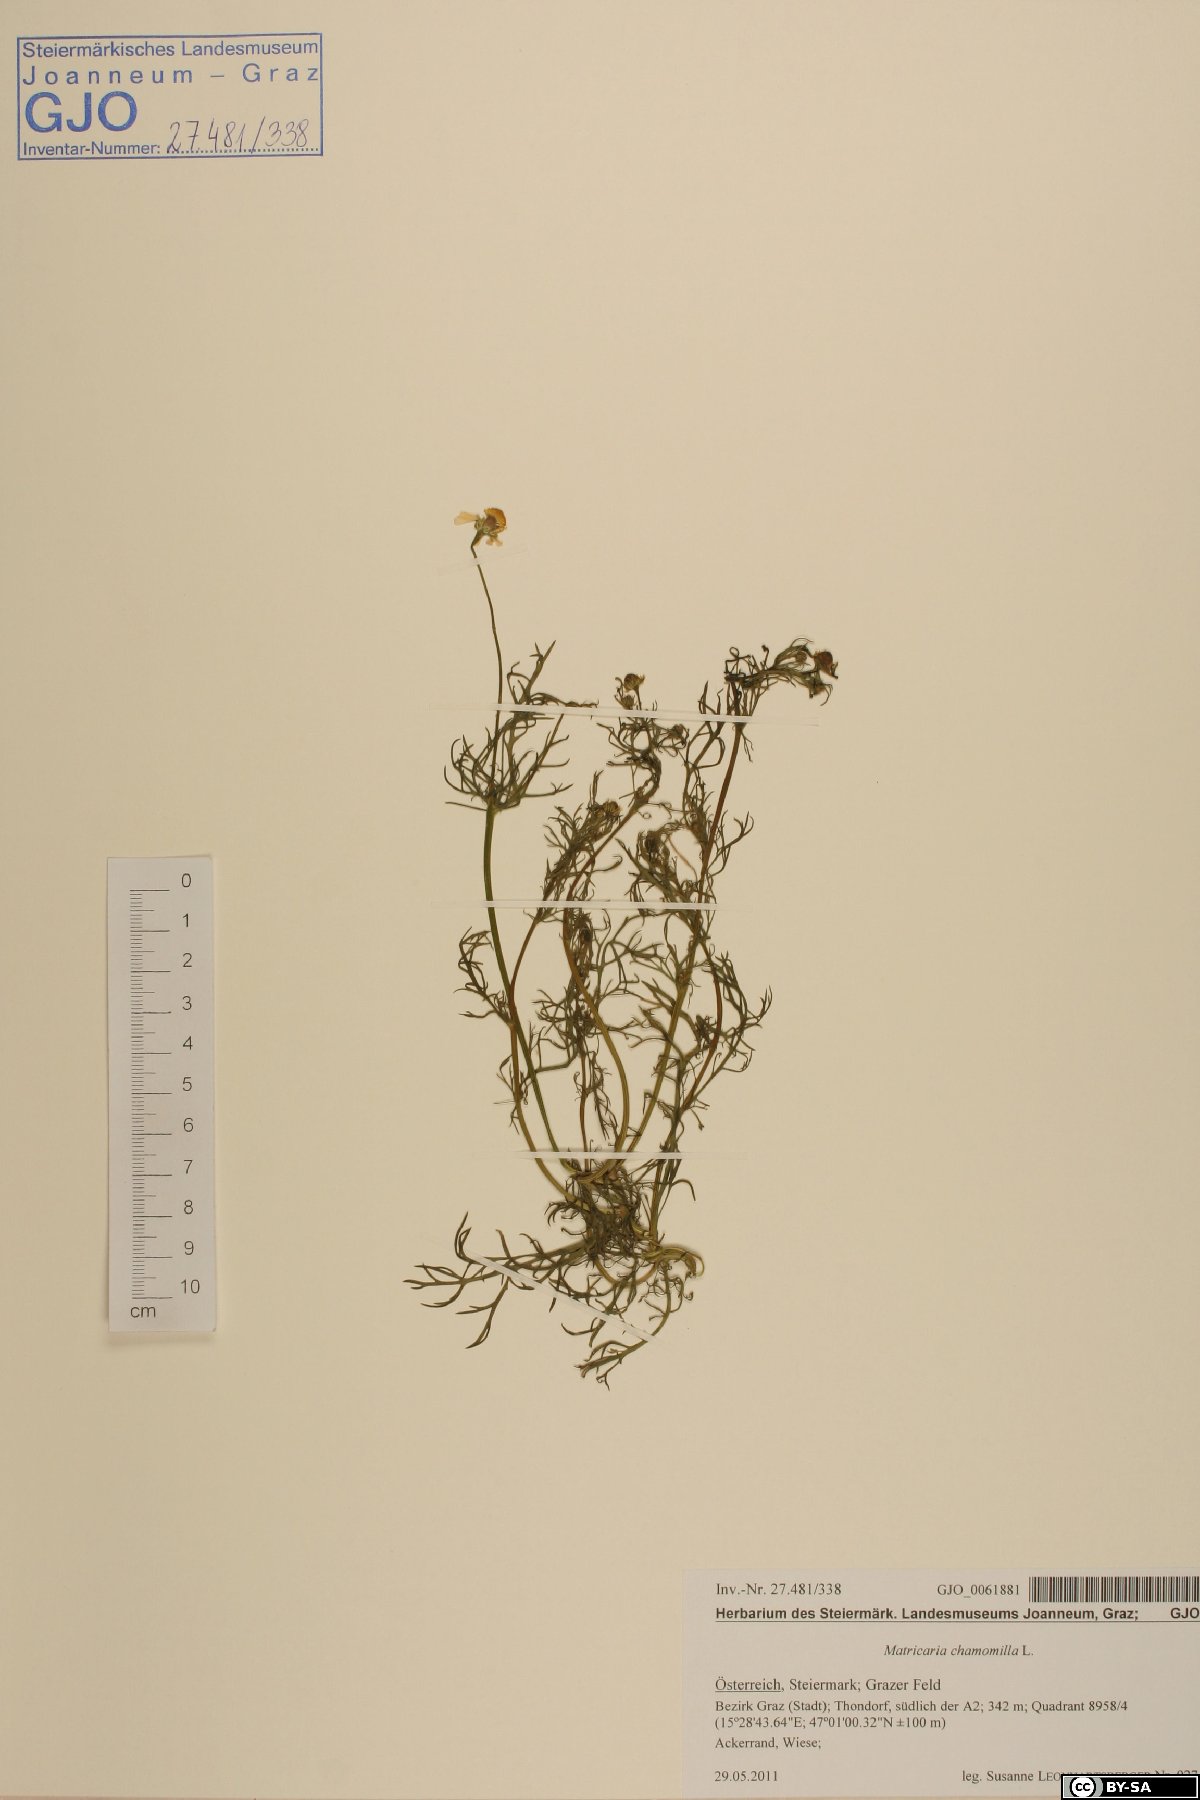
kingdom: Plantae
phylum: Tracheophyta
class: Magnoliopsida
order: Asterales
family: Asteraceae
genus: Matricaria
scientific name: Matricaria chamomilla
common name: Scented mayweed
